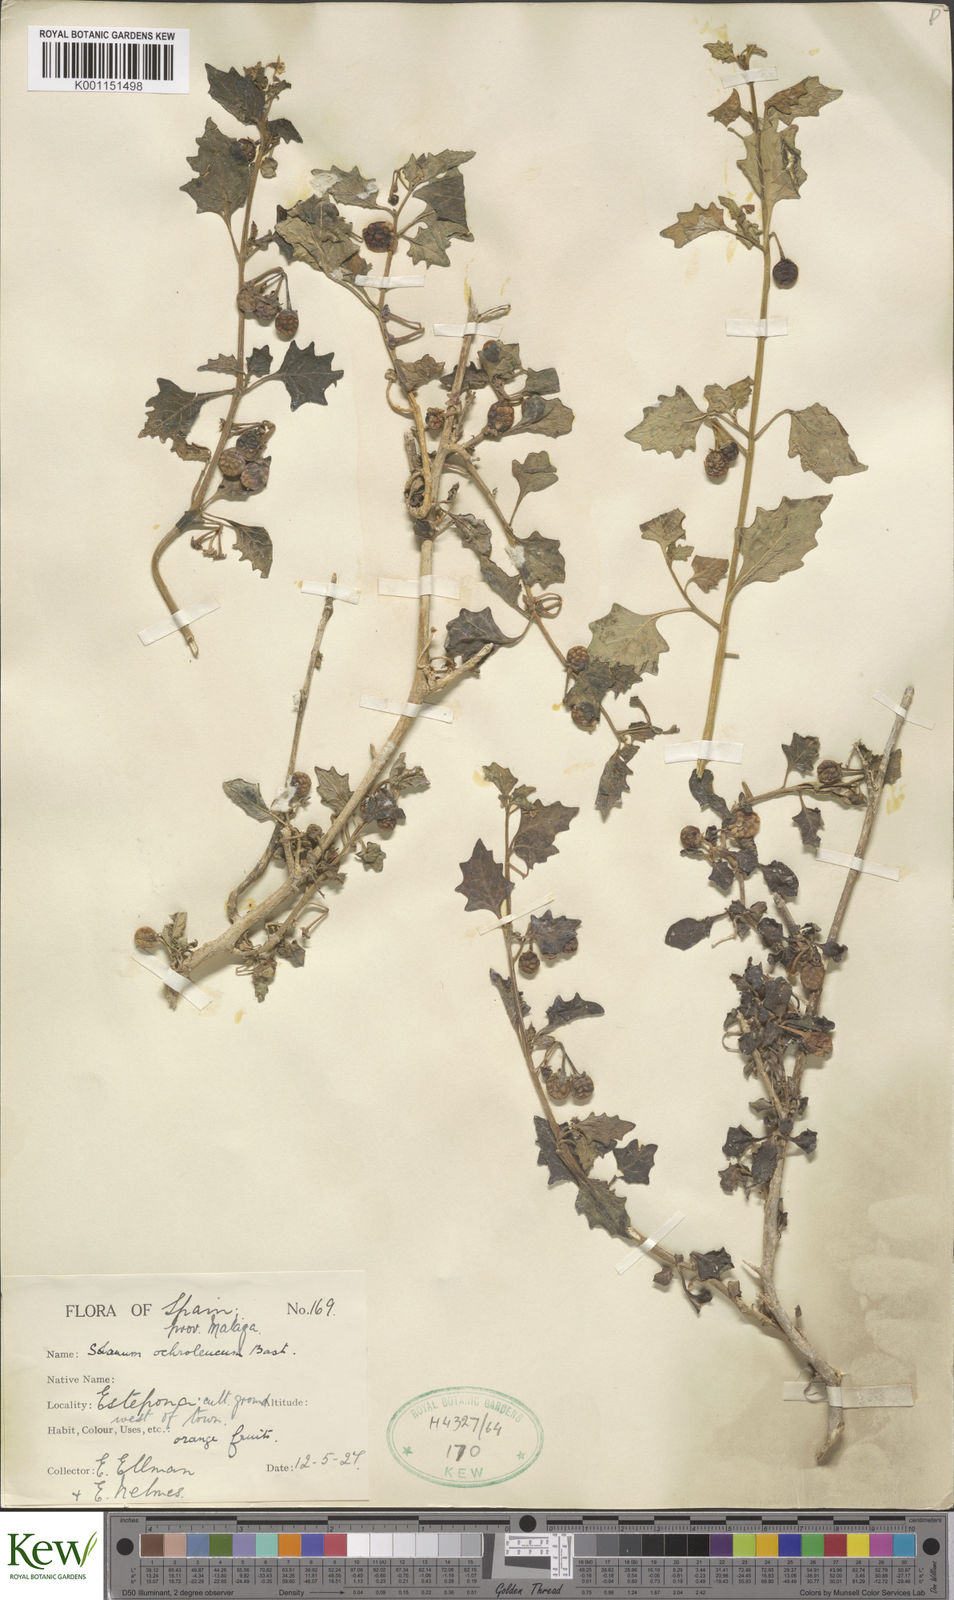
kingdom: Plantae
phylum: Tracheophyta
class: Magnoliopsida
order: Solanales
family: Solanaceae
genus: Solanum
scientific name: Solanum villosum
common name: Red nightshade
